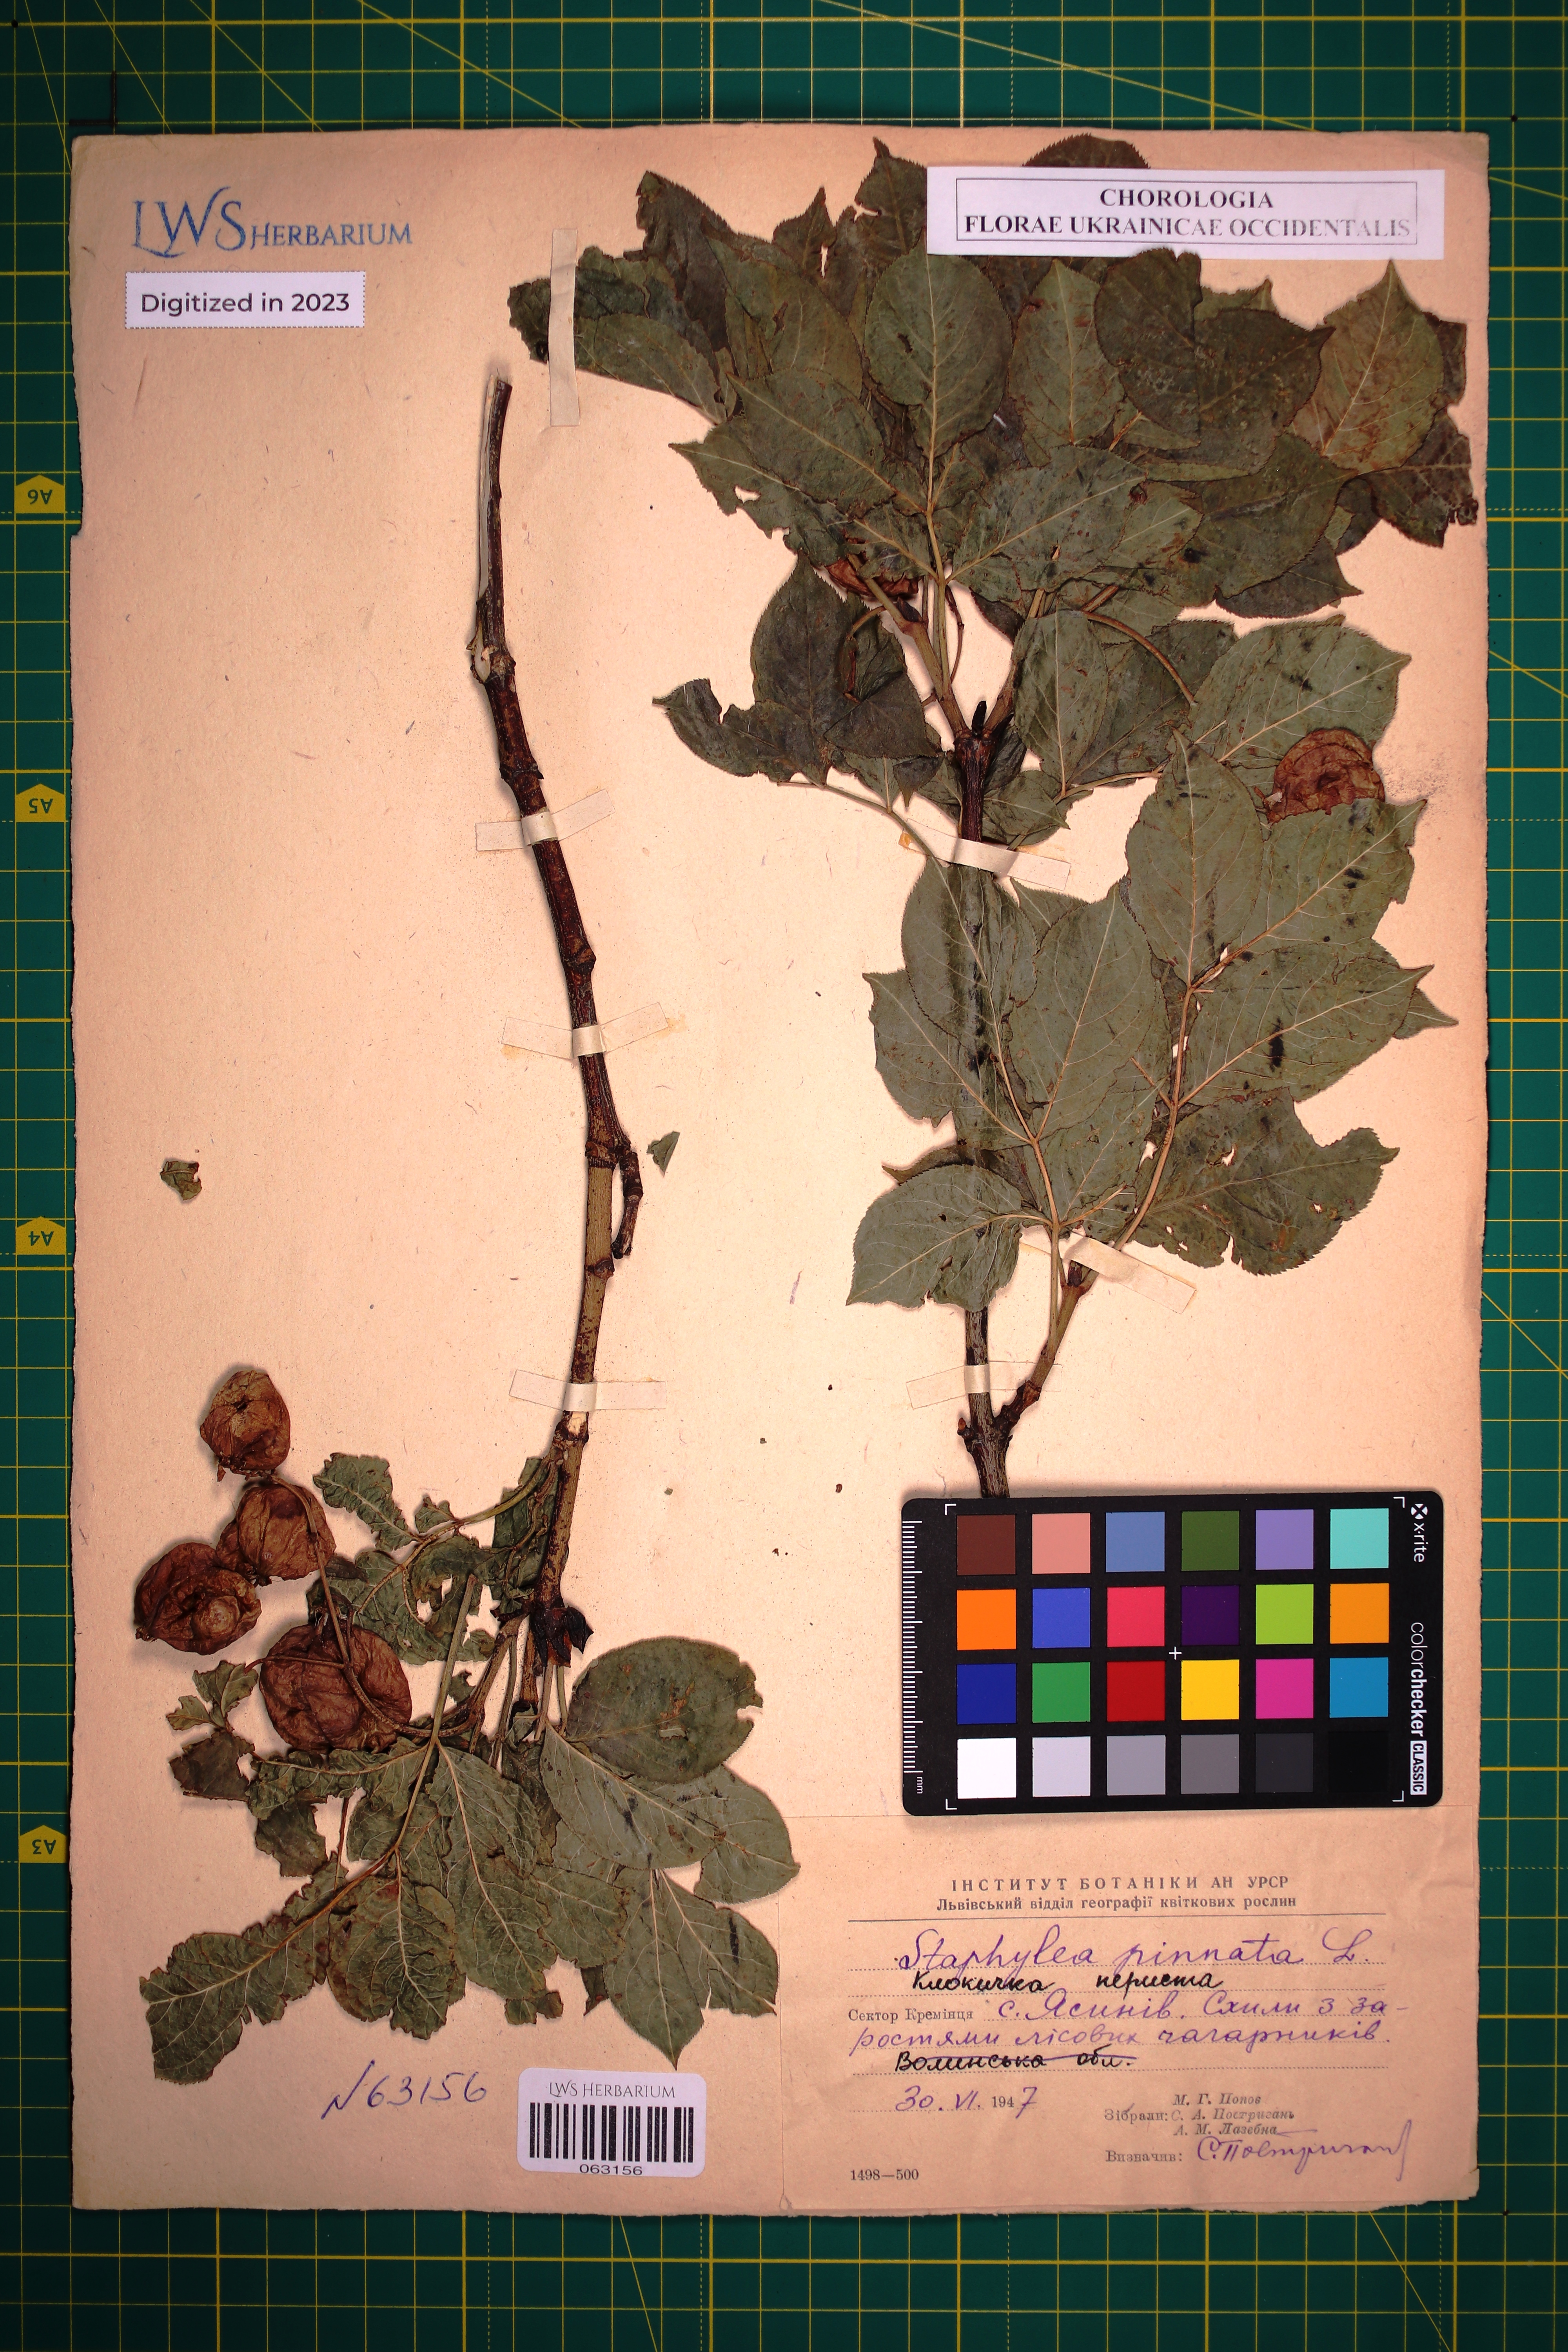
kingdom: Plantae
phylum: Tracheophyta
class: Magnoliopsida
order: Crossosomatales
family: Staphyleaceae
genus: Staphylea
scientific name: Staphylea pinnata
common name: Bladdernut
